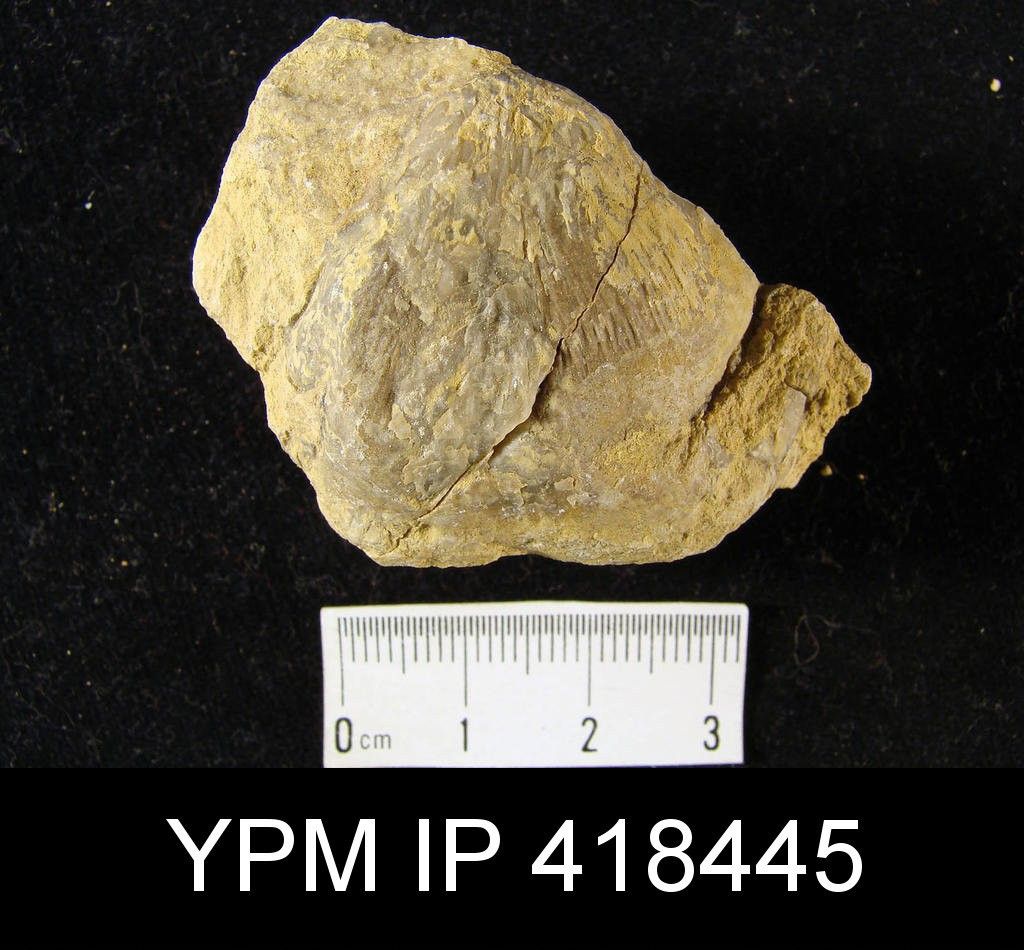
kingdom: Animalia
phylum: Brachiopoda
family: Echinoconchidae
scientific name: Echinoconchidae
